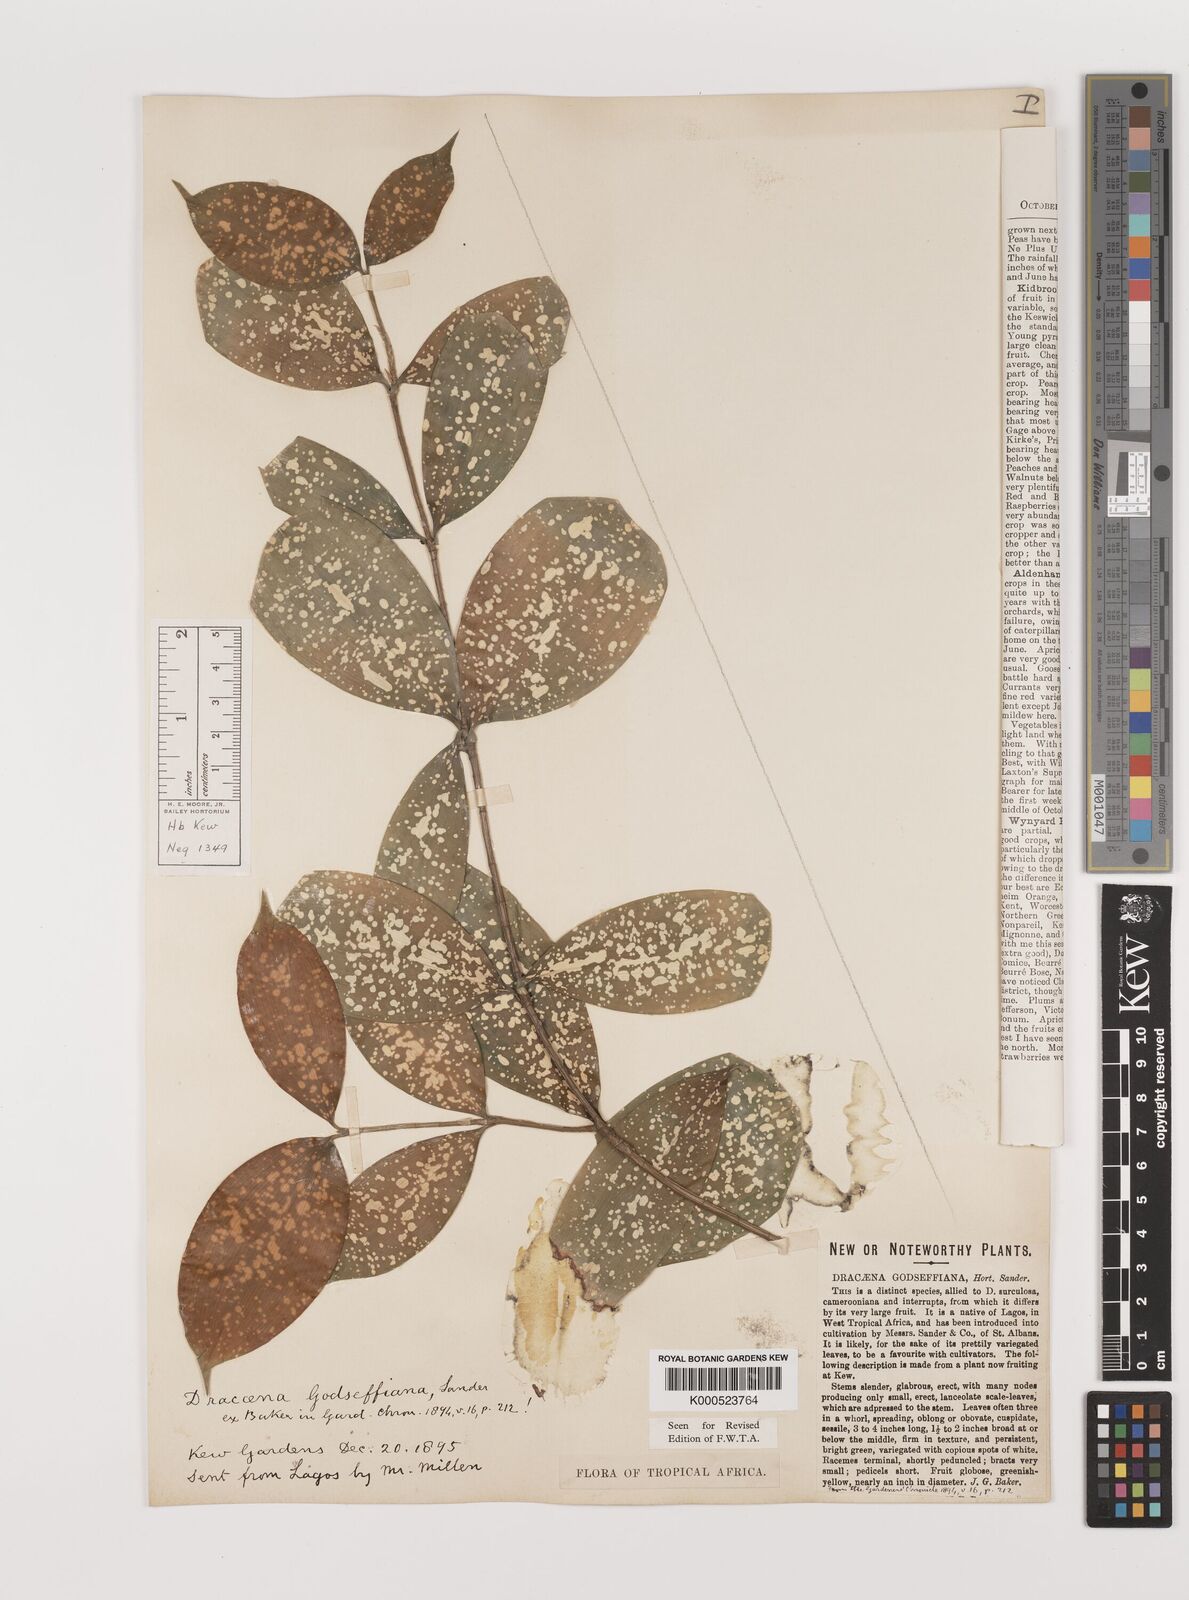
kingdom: Plantae
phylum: Tracheophyta
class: Liliopsida
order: Asparagales
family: Asparagaceae
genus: Dracaena
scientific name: Dracaena surculosa
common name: Spotted dracaena
